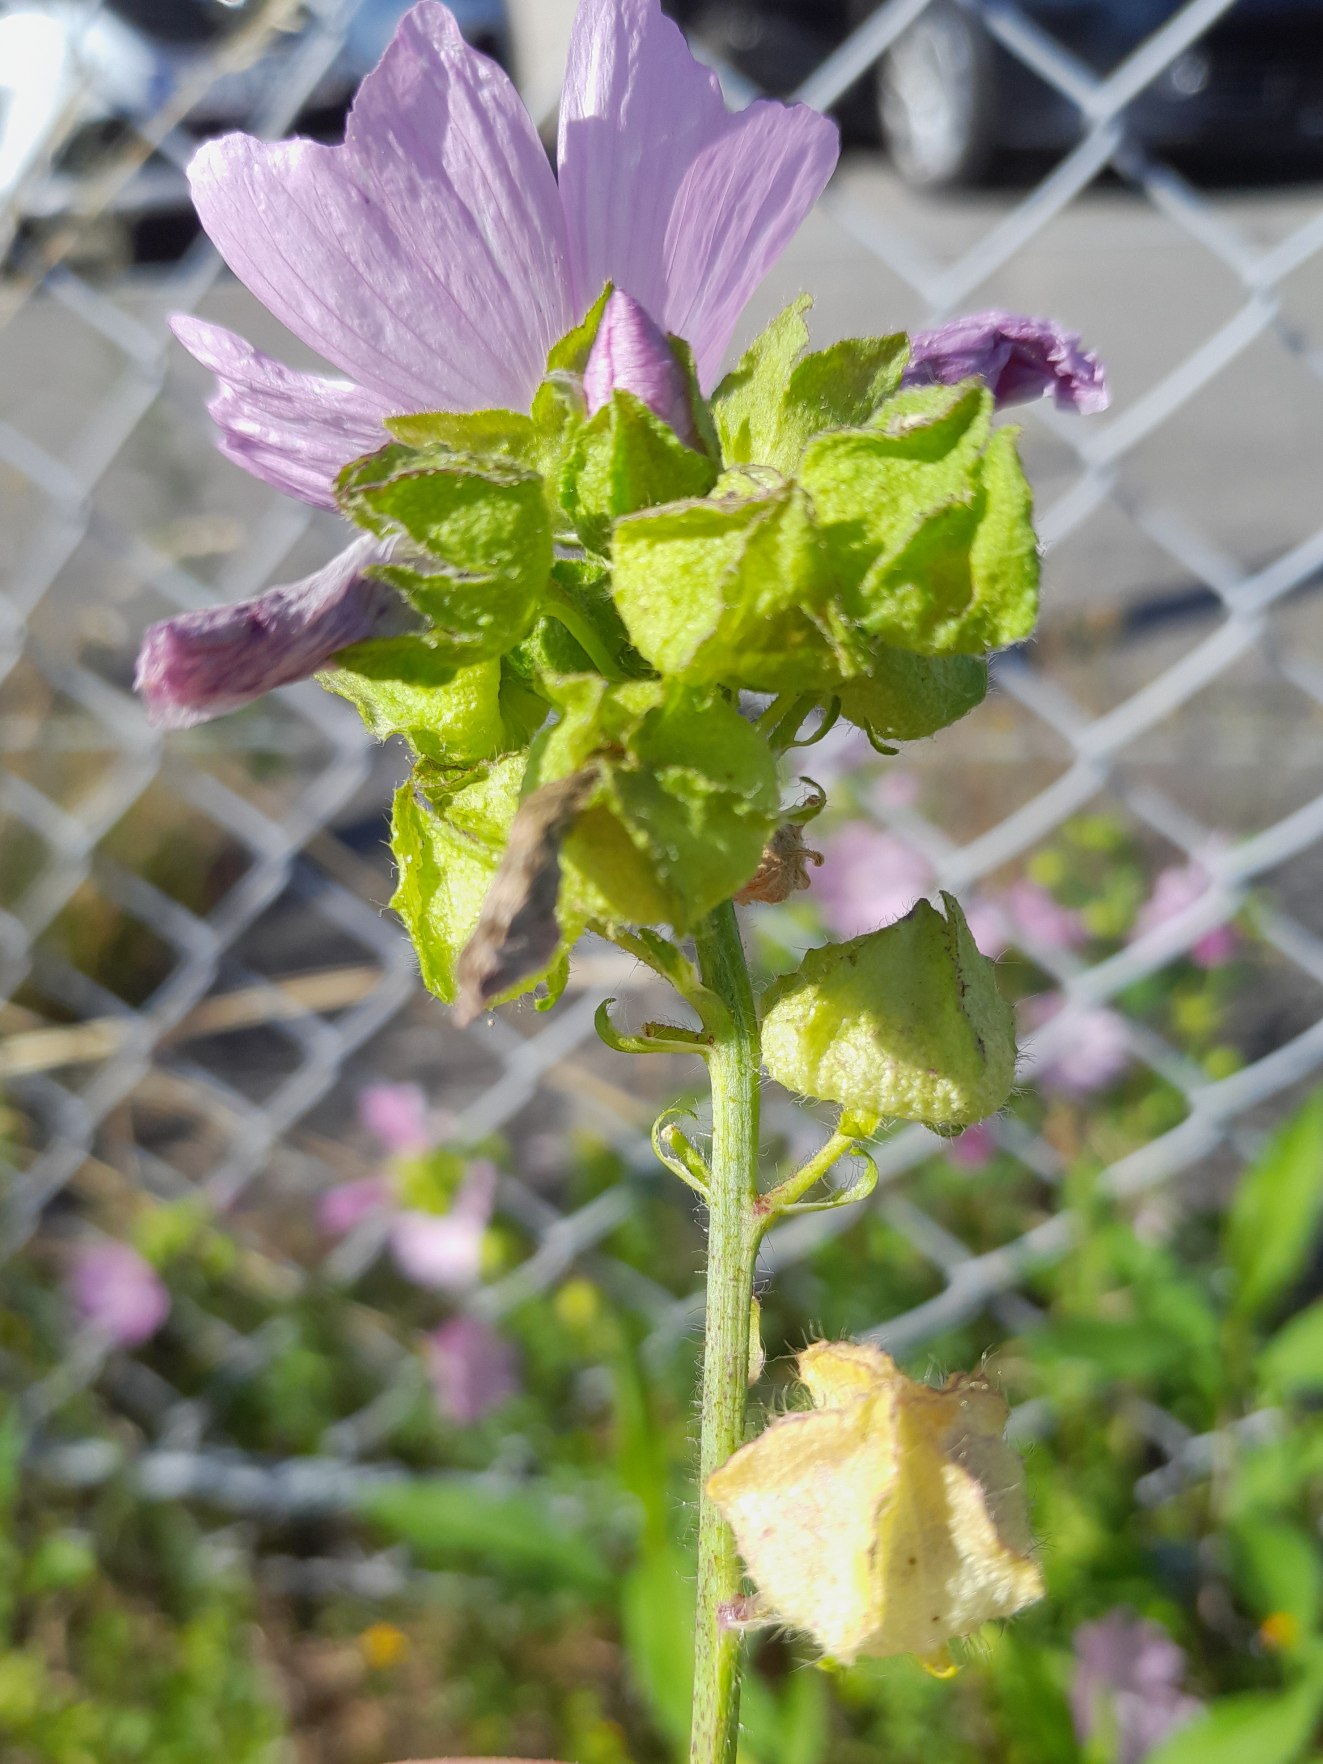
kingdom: Plantae
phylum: Tracheophyta
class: Magnoliopsida
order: Malvales
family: Malvaceae
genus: Malva
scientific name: Malva moschata
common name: Moskus-katost
